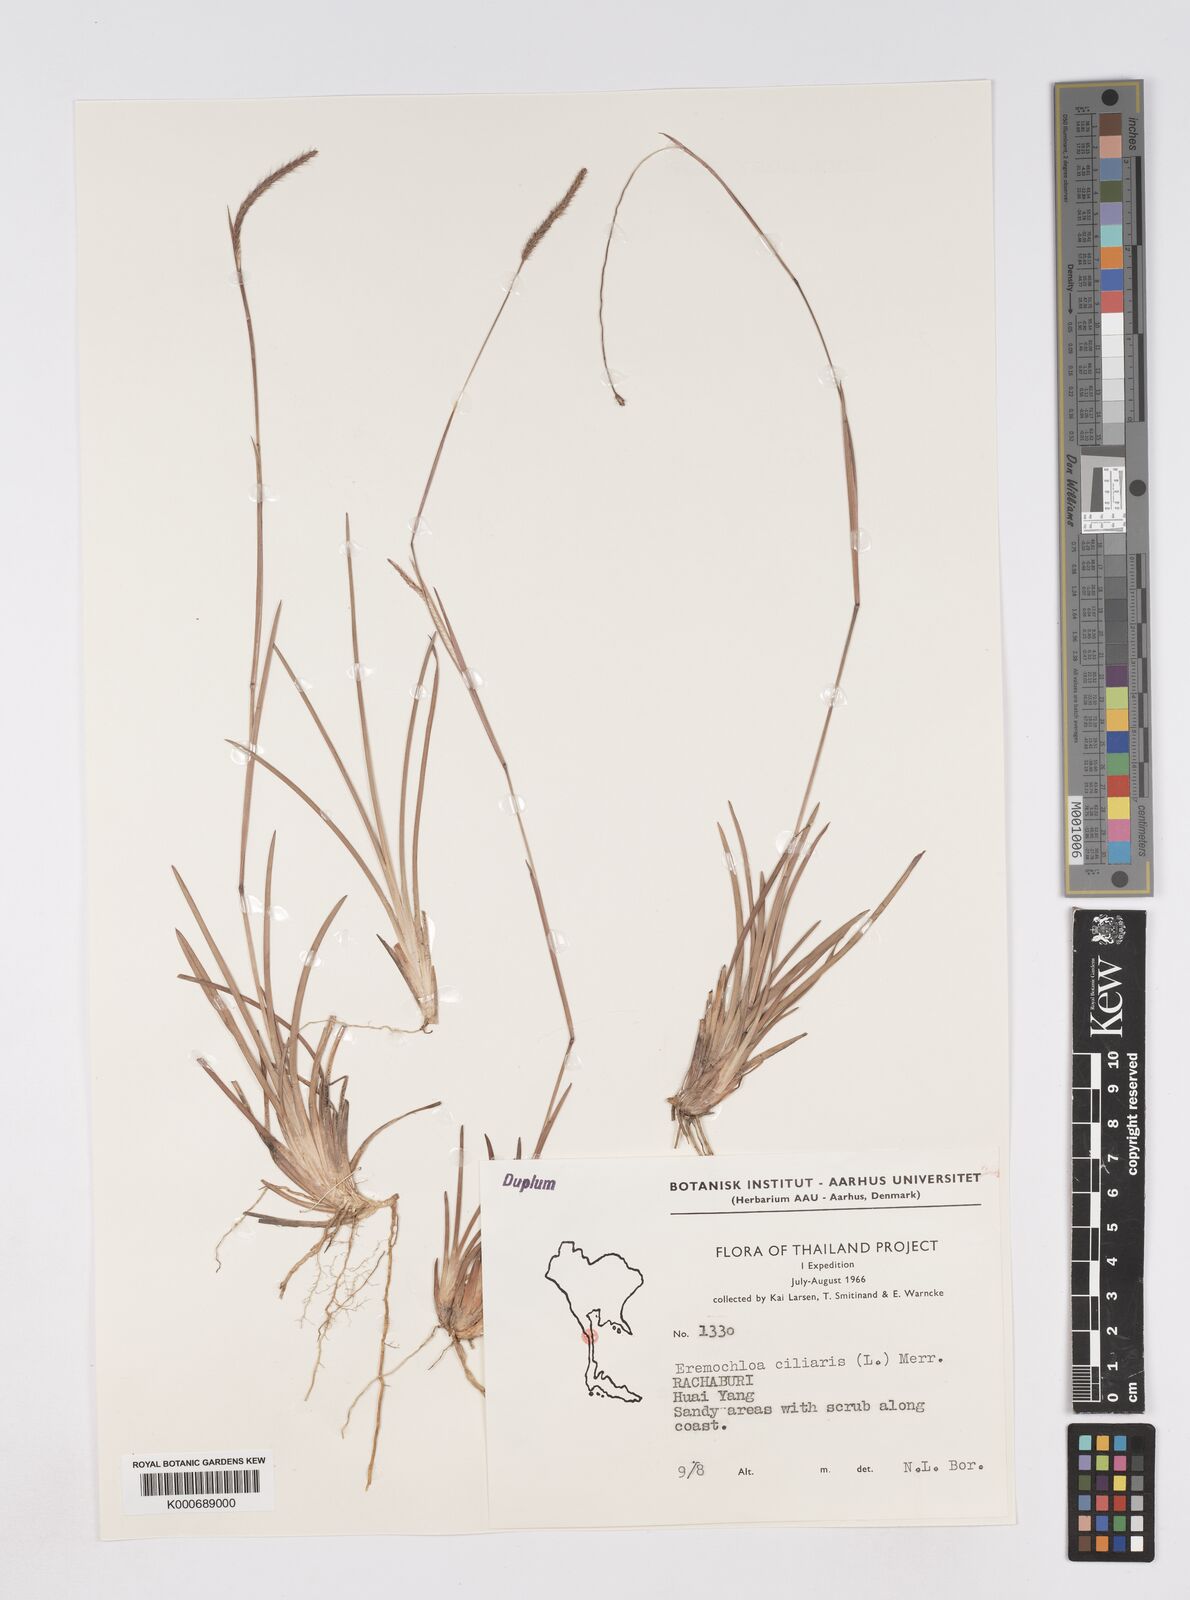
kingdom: Plantae
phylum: Tracheophyta
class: Liliopsida
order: Poales
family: Poaceae
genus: Eremochloa
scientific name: Eremochloa ciliaris
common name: Fringed centipede grass
